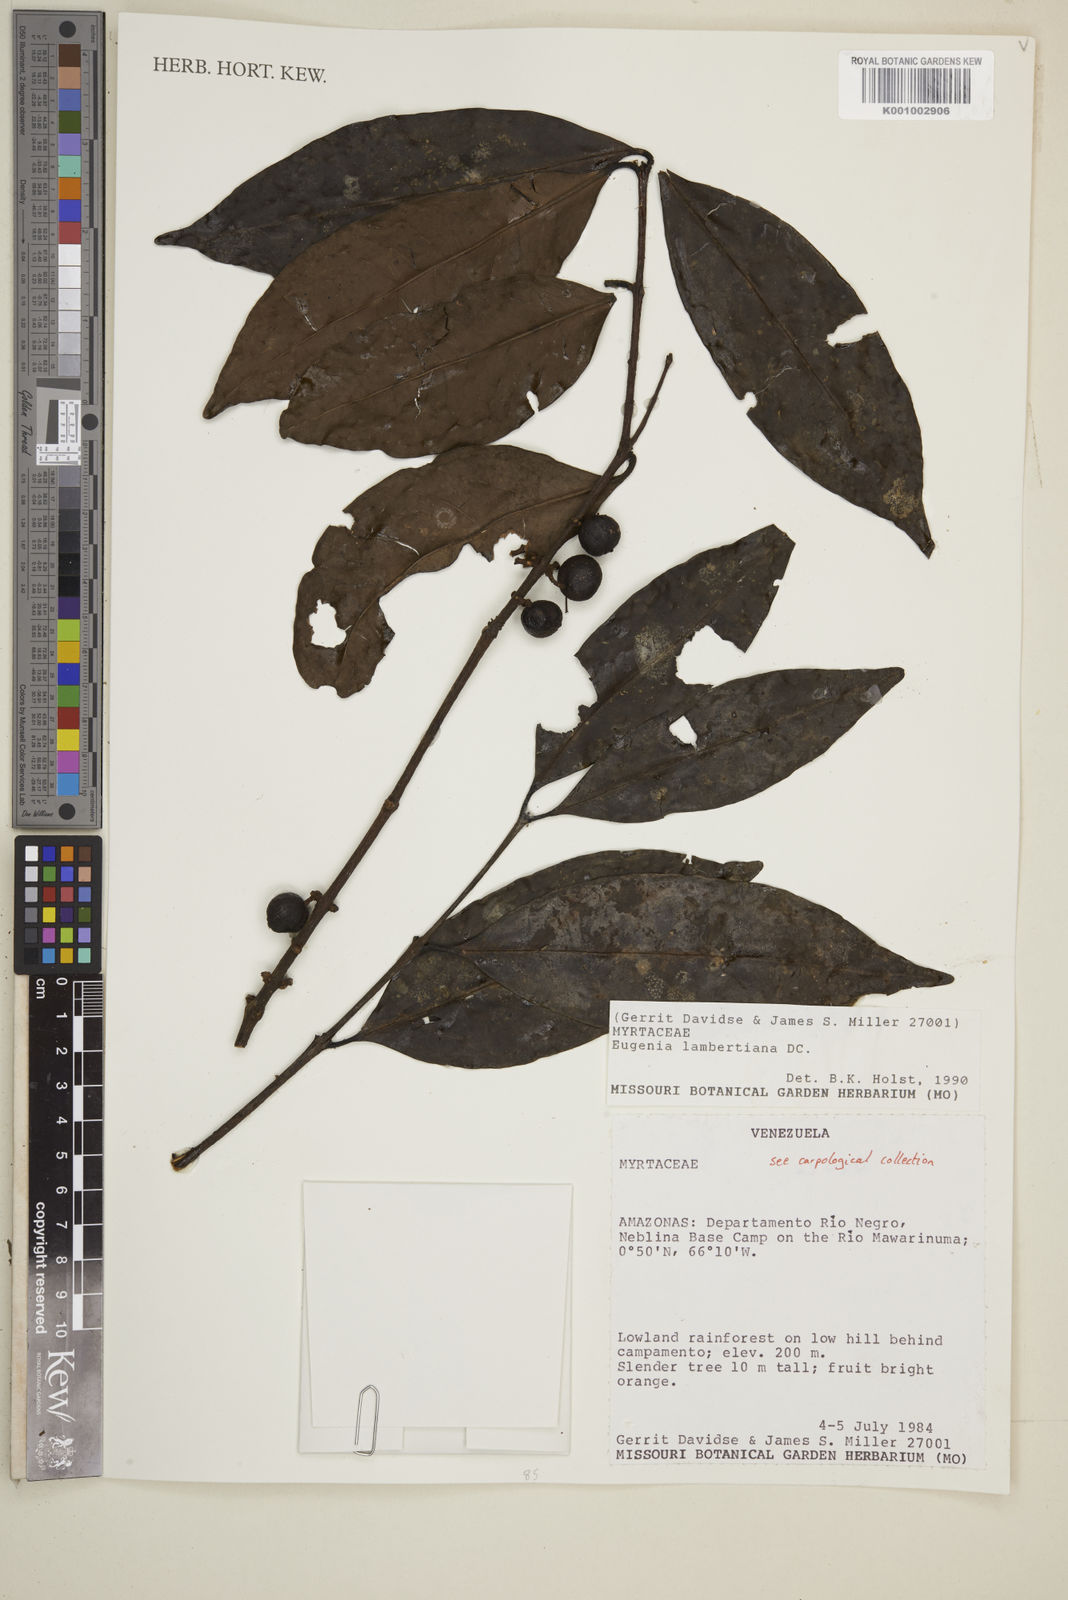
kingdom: Plantae
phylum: Tracheophyta
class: Magnoliopsida
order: Myrtales
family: Myrtaceae
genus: Eugenia
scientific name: Eugenia lambertiana
